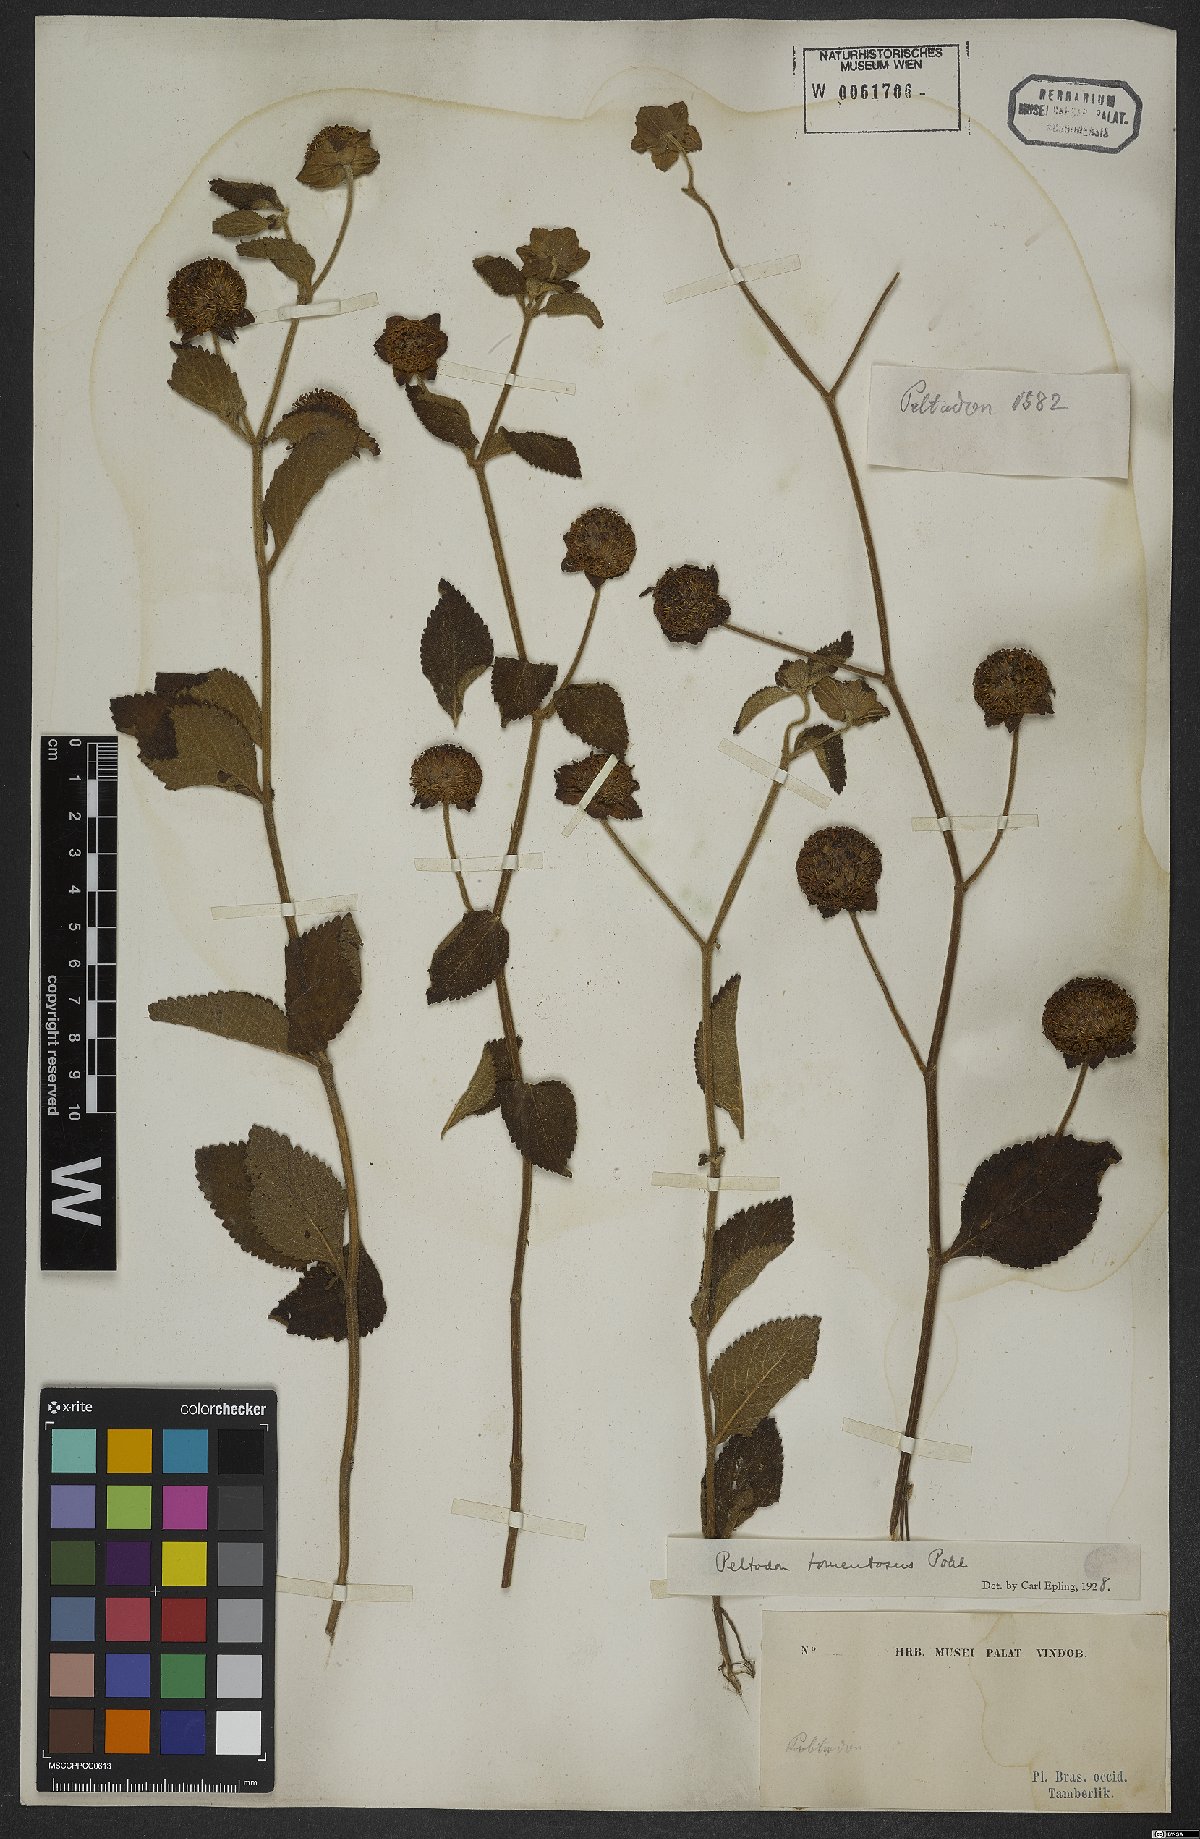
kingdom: Plantae
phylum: Tracheophyta
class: Magnoliopsida
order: Lamiales
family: Lamiaceae
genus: Hyptis
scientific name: Hyptis campestris
